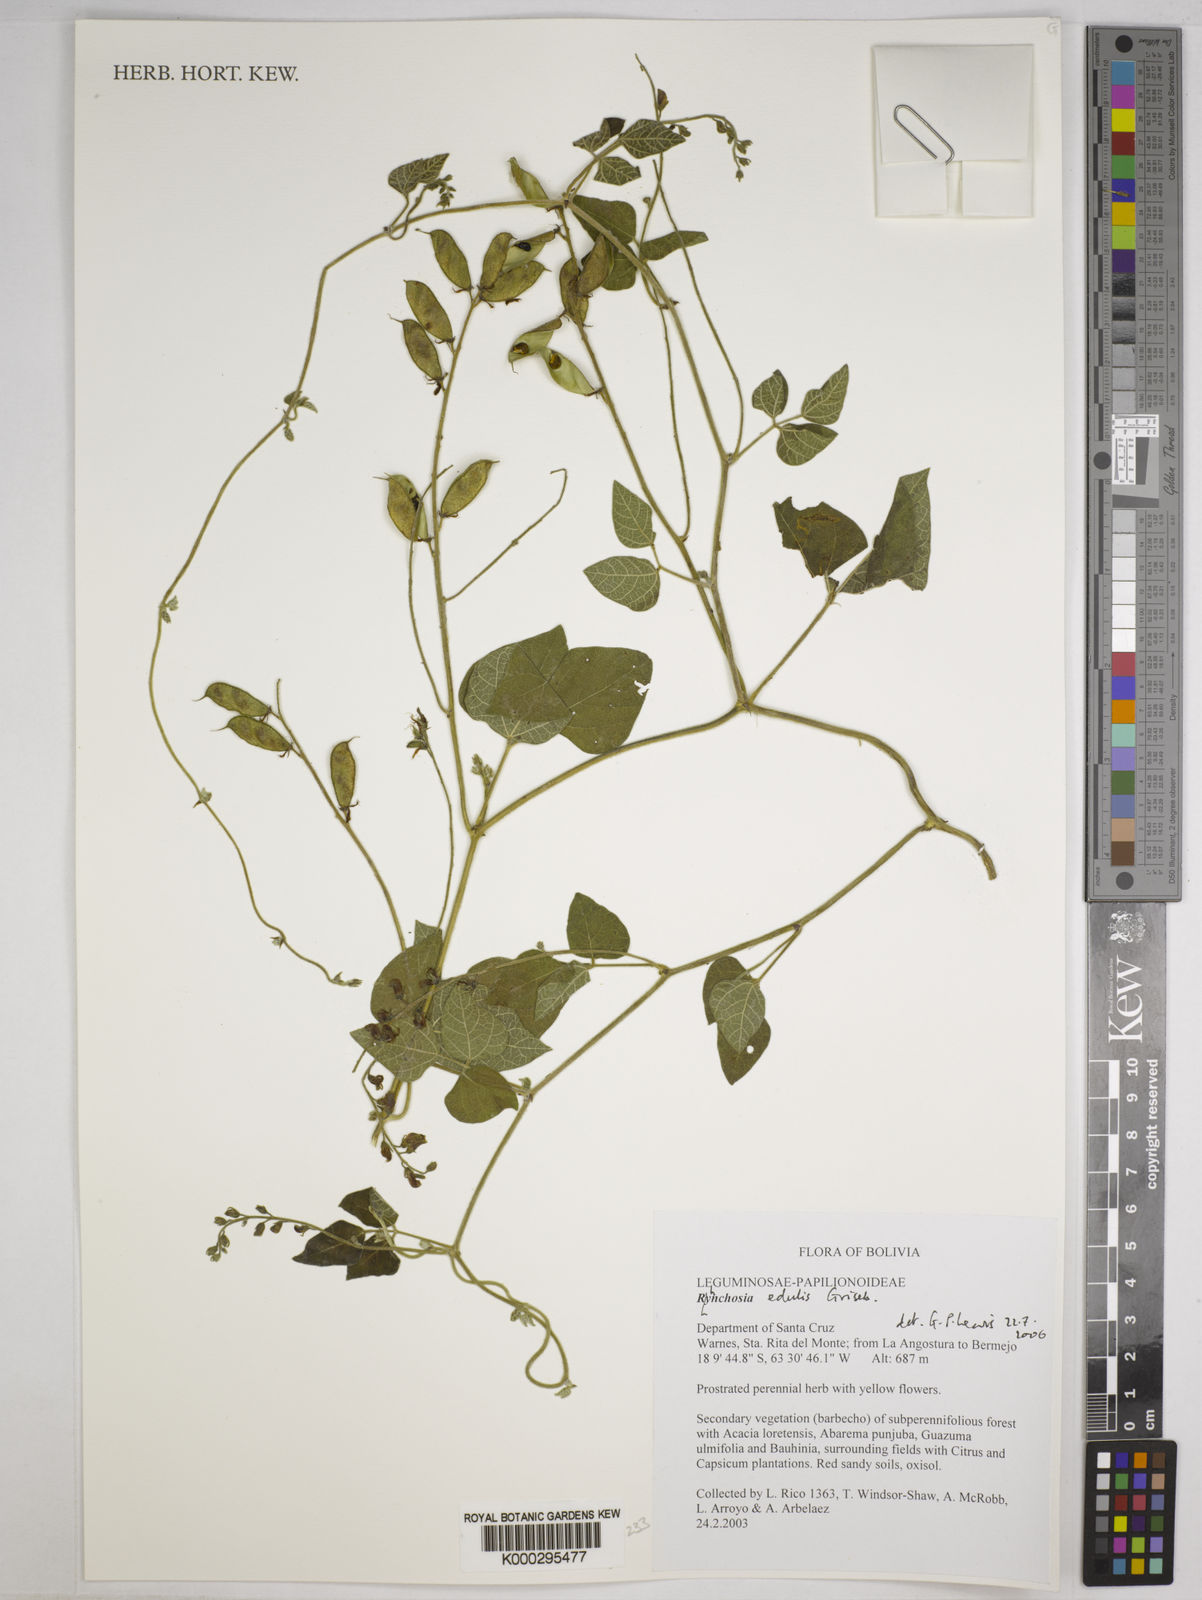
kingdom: Plantae
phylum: Tracheophyta
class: Magnoliopsida
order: Fabales
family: Fabaceae
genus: Rhynchosia
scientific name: Rhynchosia edulis
